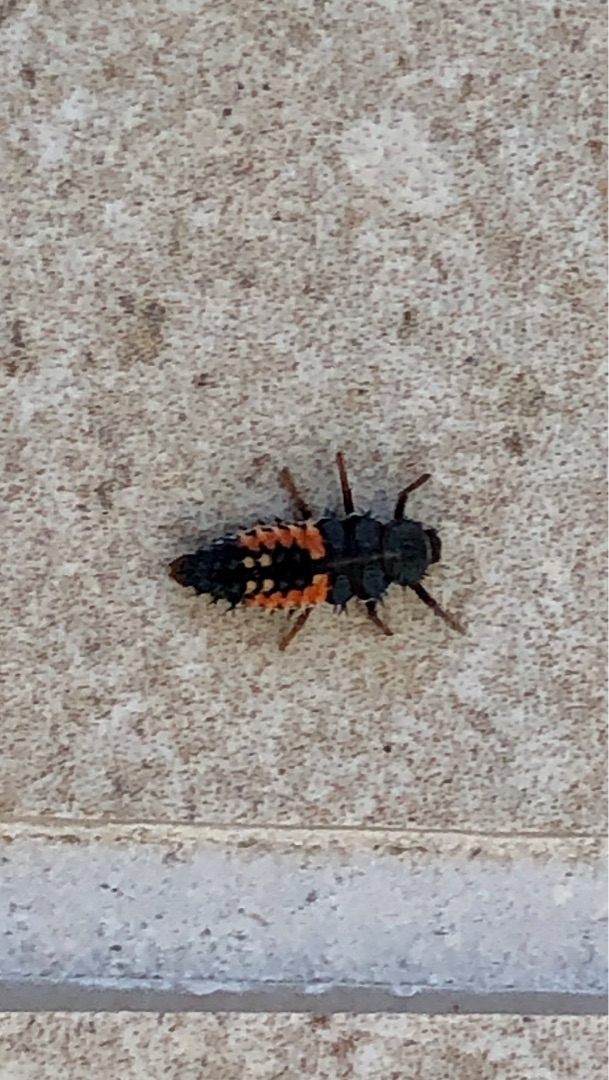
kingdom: Animalia
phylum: Arthropoda
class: Insecta
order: Coleoptera
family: Coccinellidae
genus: Harmonia
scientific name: Harmonia axyridis
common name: Harlekinmariehøne
